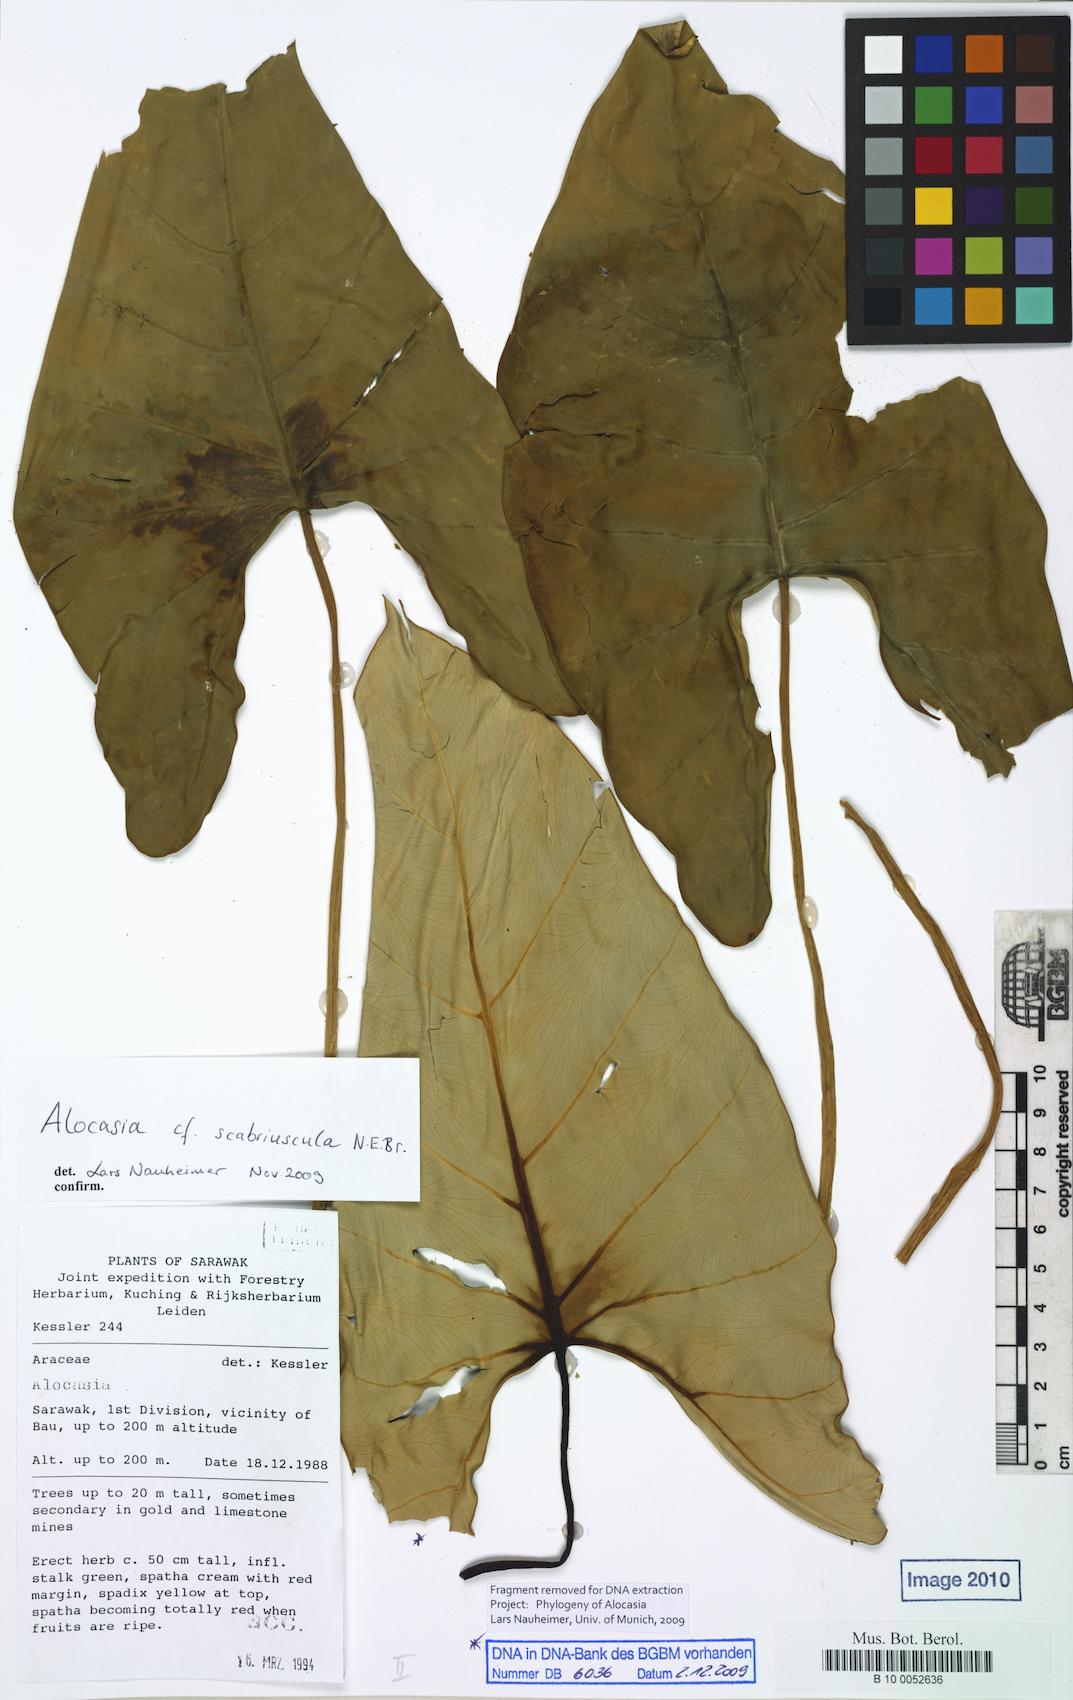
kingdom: Plantae
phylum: Tracheophyta
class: Liliopsida
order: Alismatales
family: Araceae
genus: Alocasia
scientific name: Alocasia
